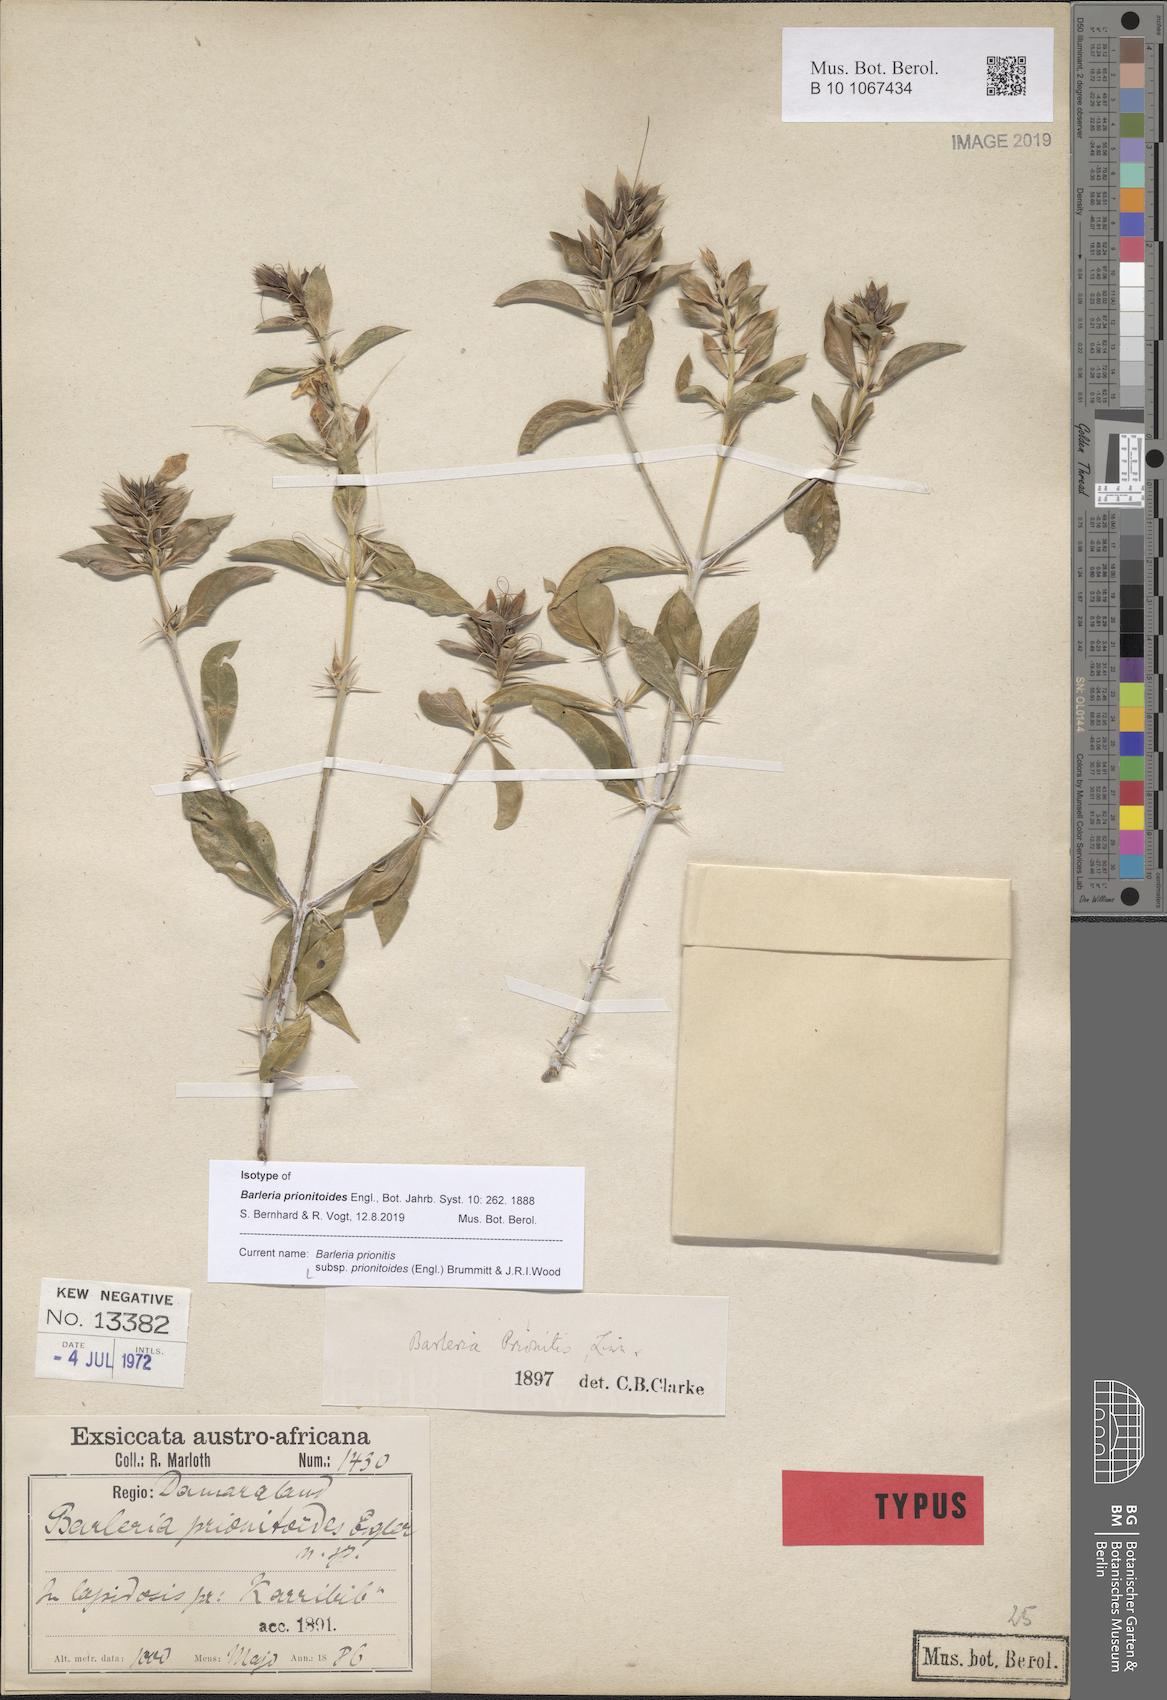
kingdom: Plantae
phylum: Tracheophyta
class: Magnoliopsida
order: Lamiales
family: Acanthaceae
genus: Barleria
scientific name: Barleria prionitoides
